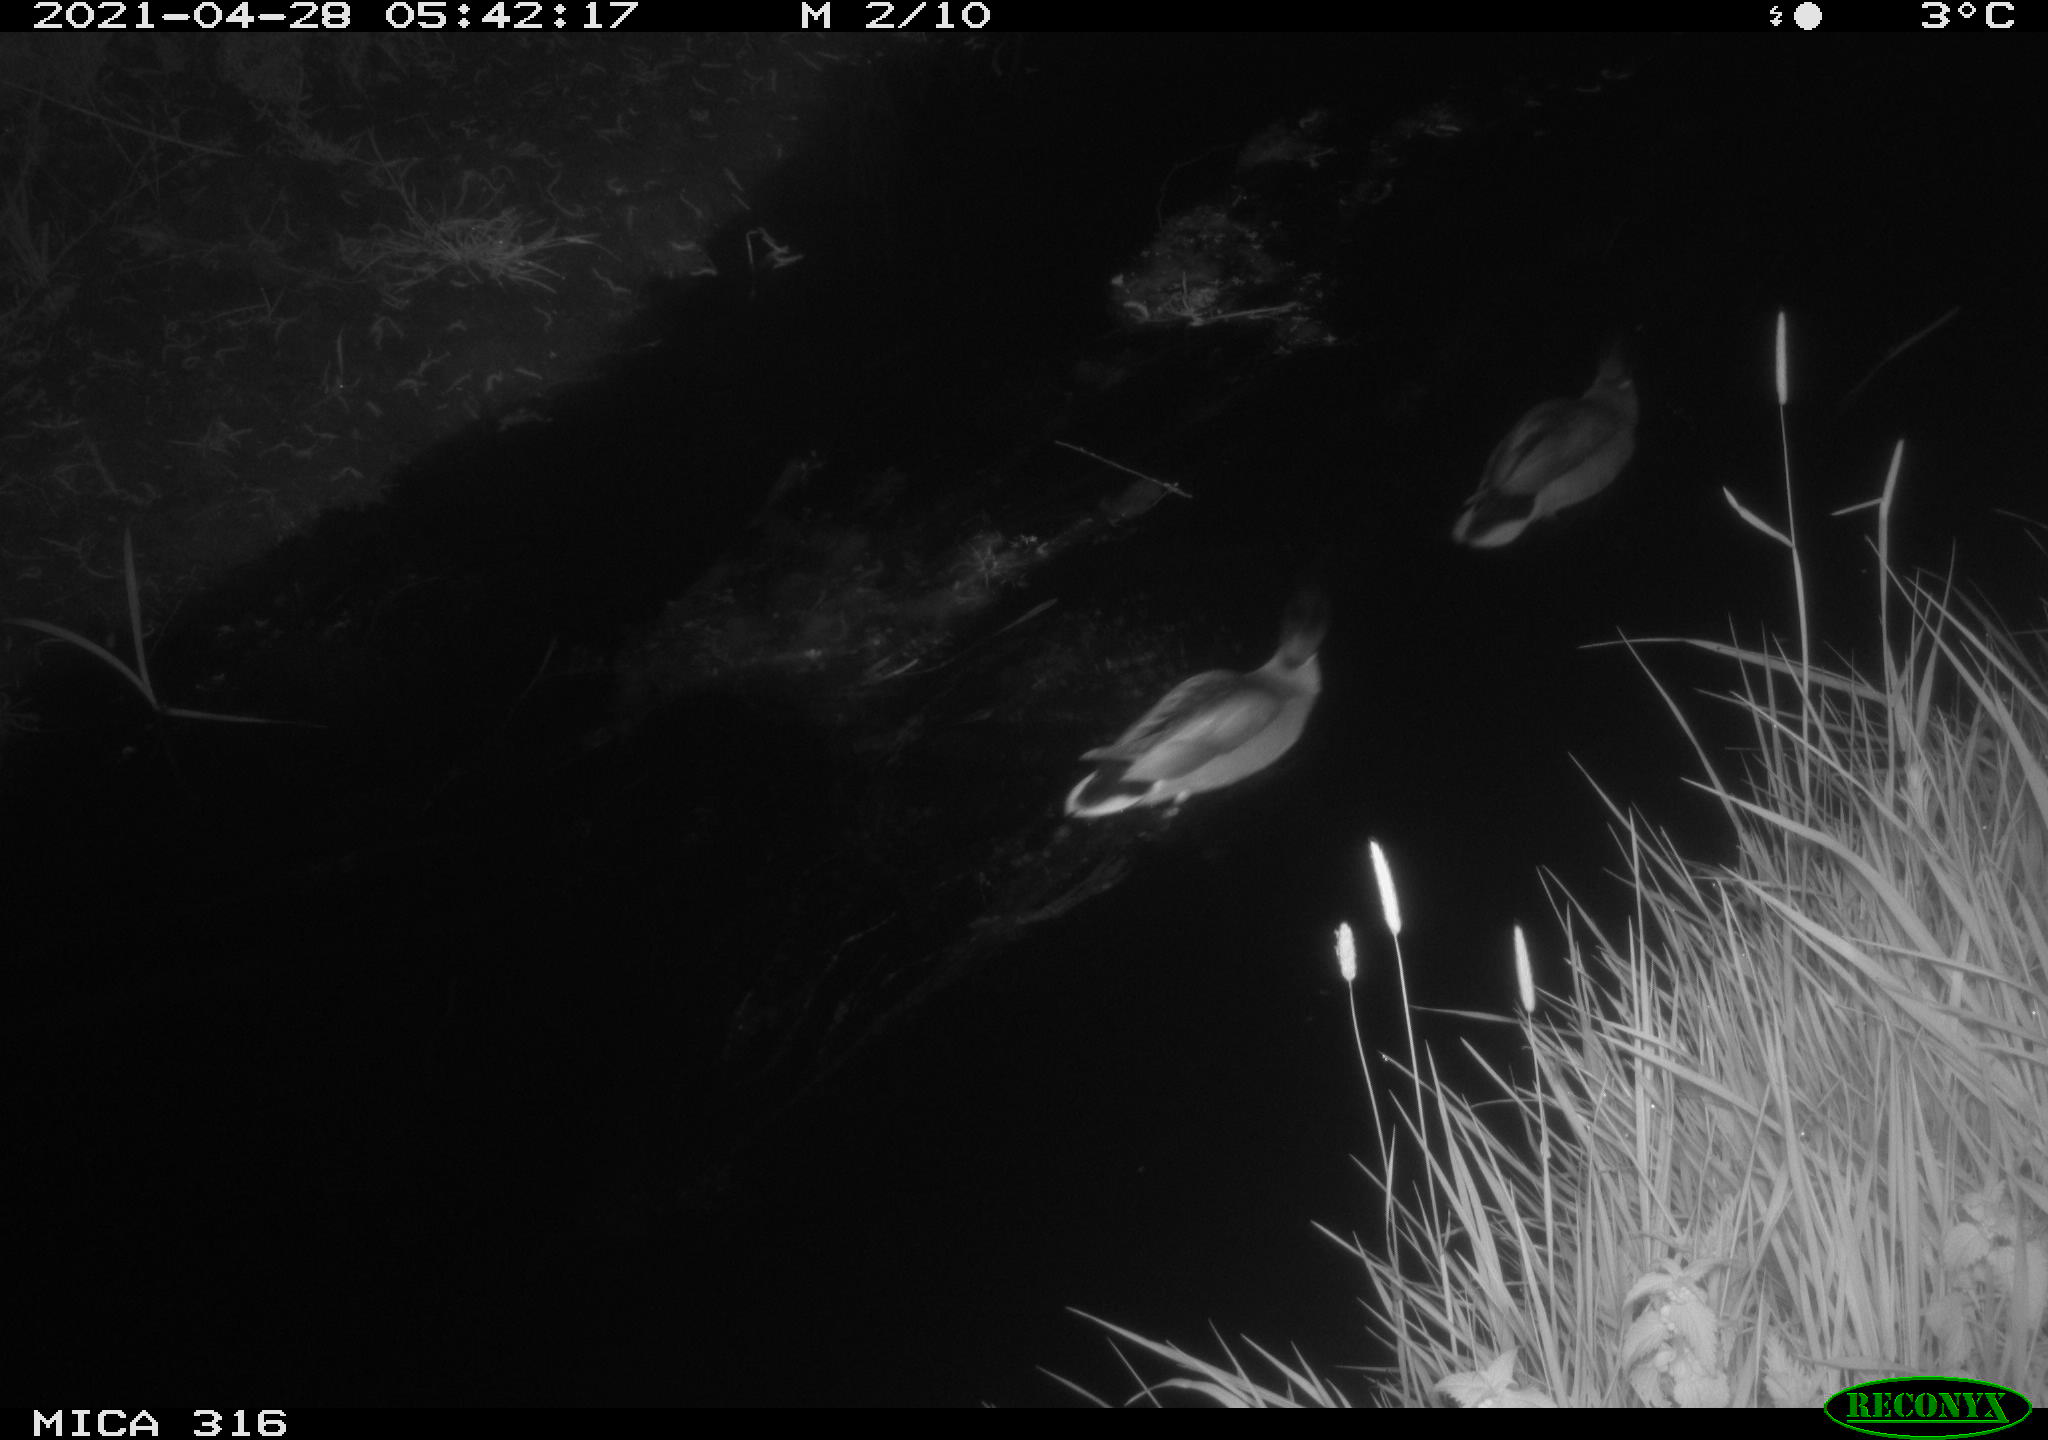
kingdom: Animalia
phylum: Chordata
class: Aves
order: Anseriformes
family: Anatidae
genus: Anas
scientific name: Anas platyrhynchos
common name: Mallard
